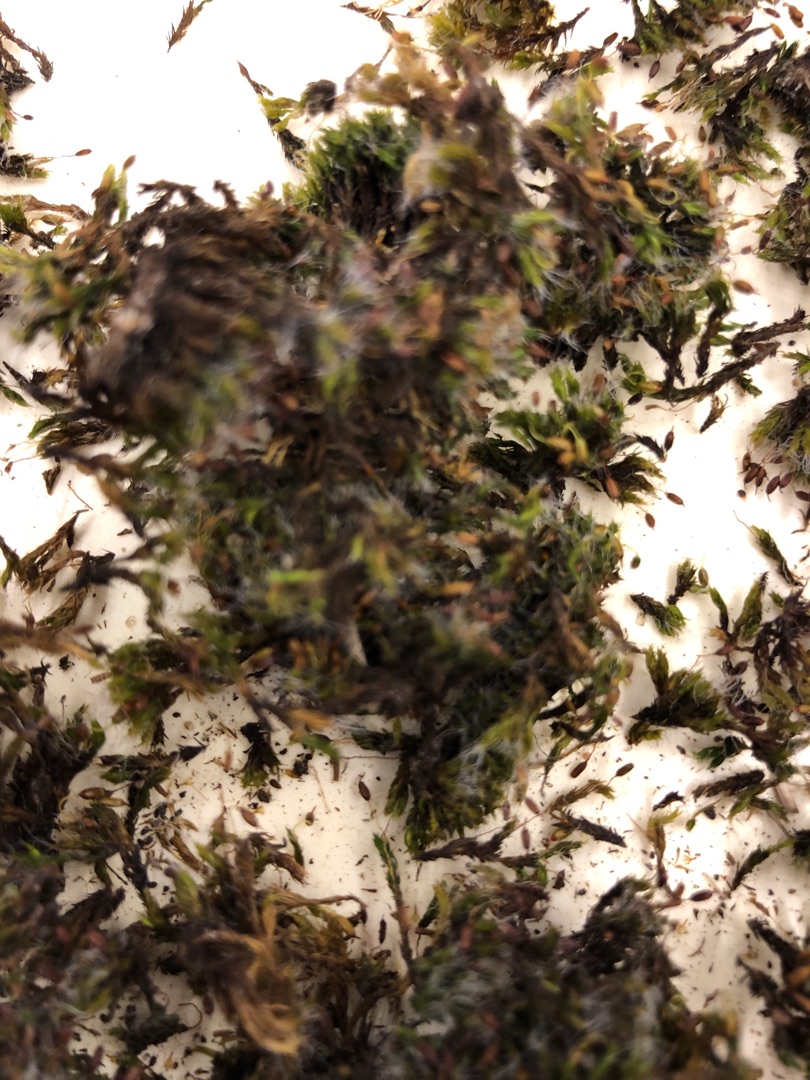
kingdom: Plantae
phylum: Bryophyta
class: Bryopsida
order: Grimmiales
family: Grimmiaceae
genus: Grimmia
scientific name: Grimmia pulvinata
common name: Pude-gråmos
